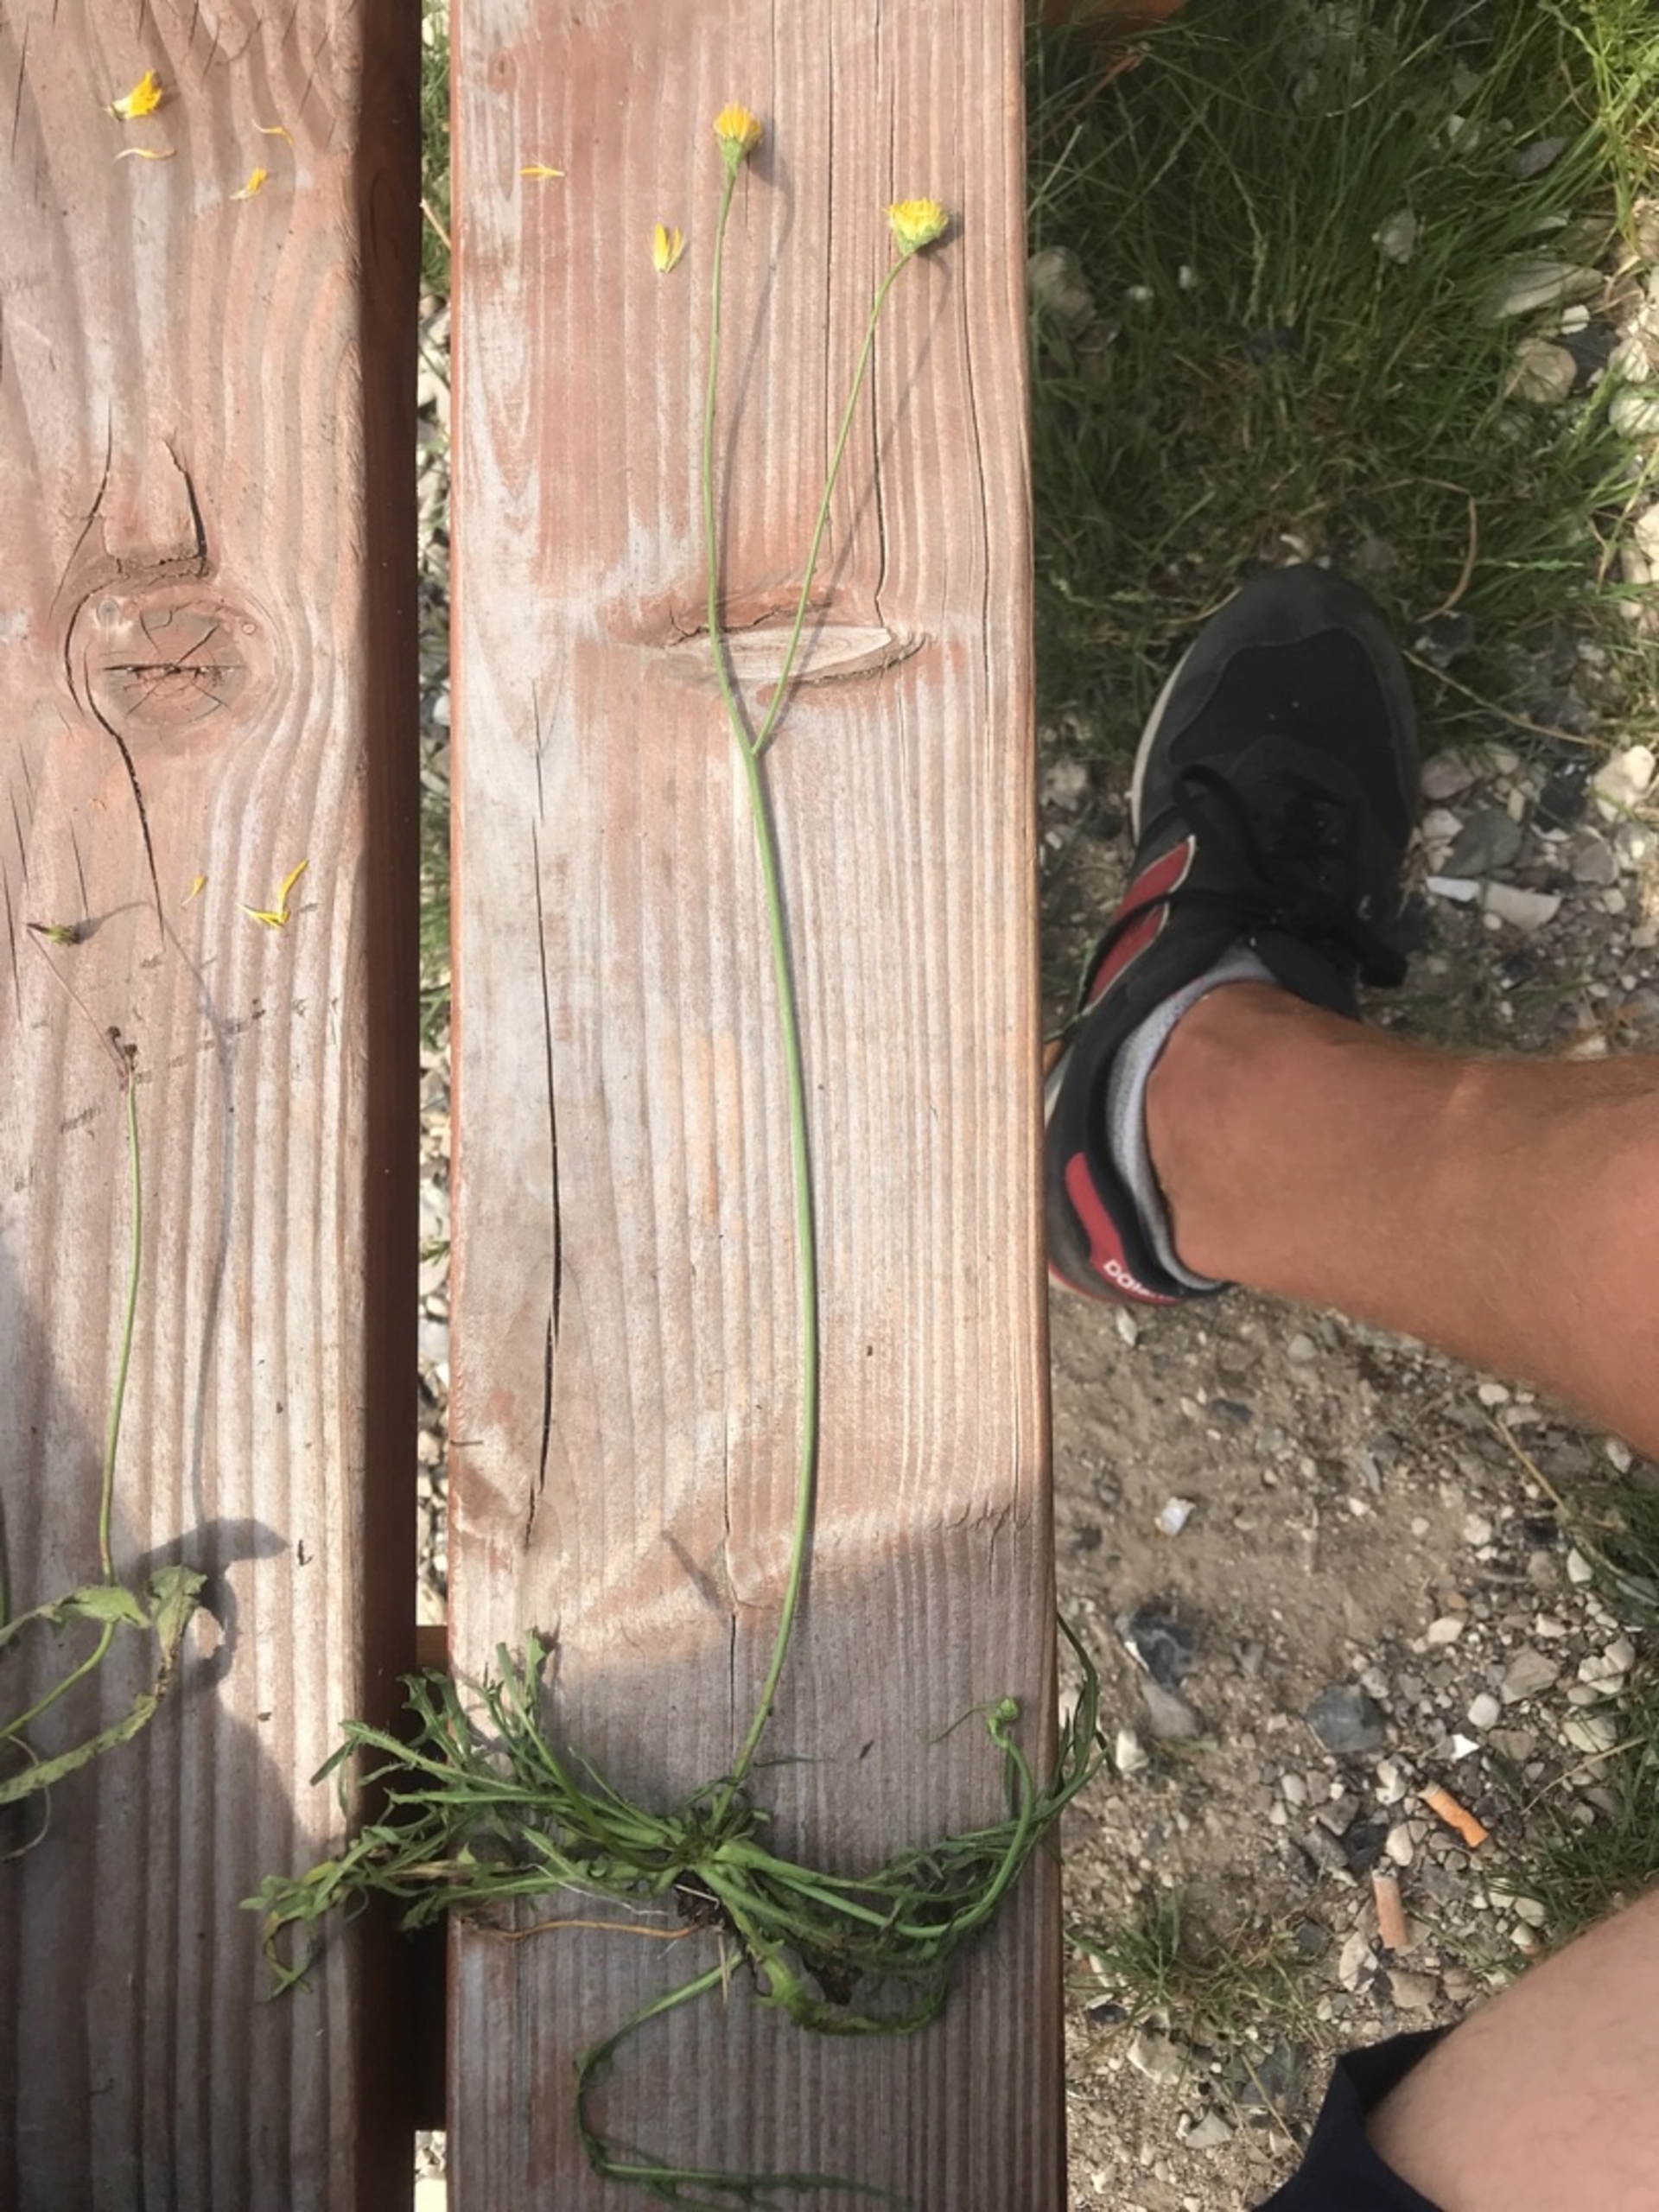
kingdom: Plantae
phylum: Tracheophyta
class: Magnoliopsida
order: Asterales
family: Asteraceae
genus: Scorzoneroides
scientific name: Scorzoneroides autumnalis
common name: Høst-borst
